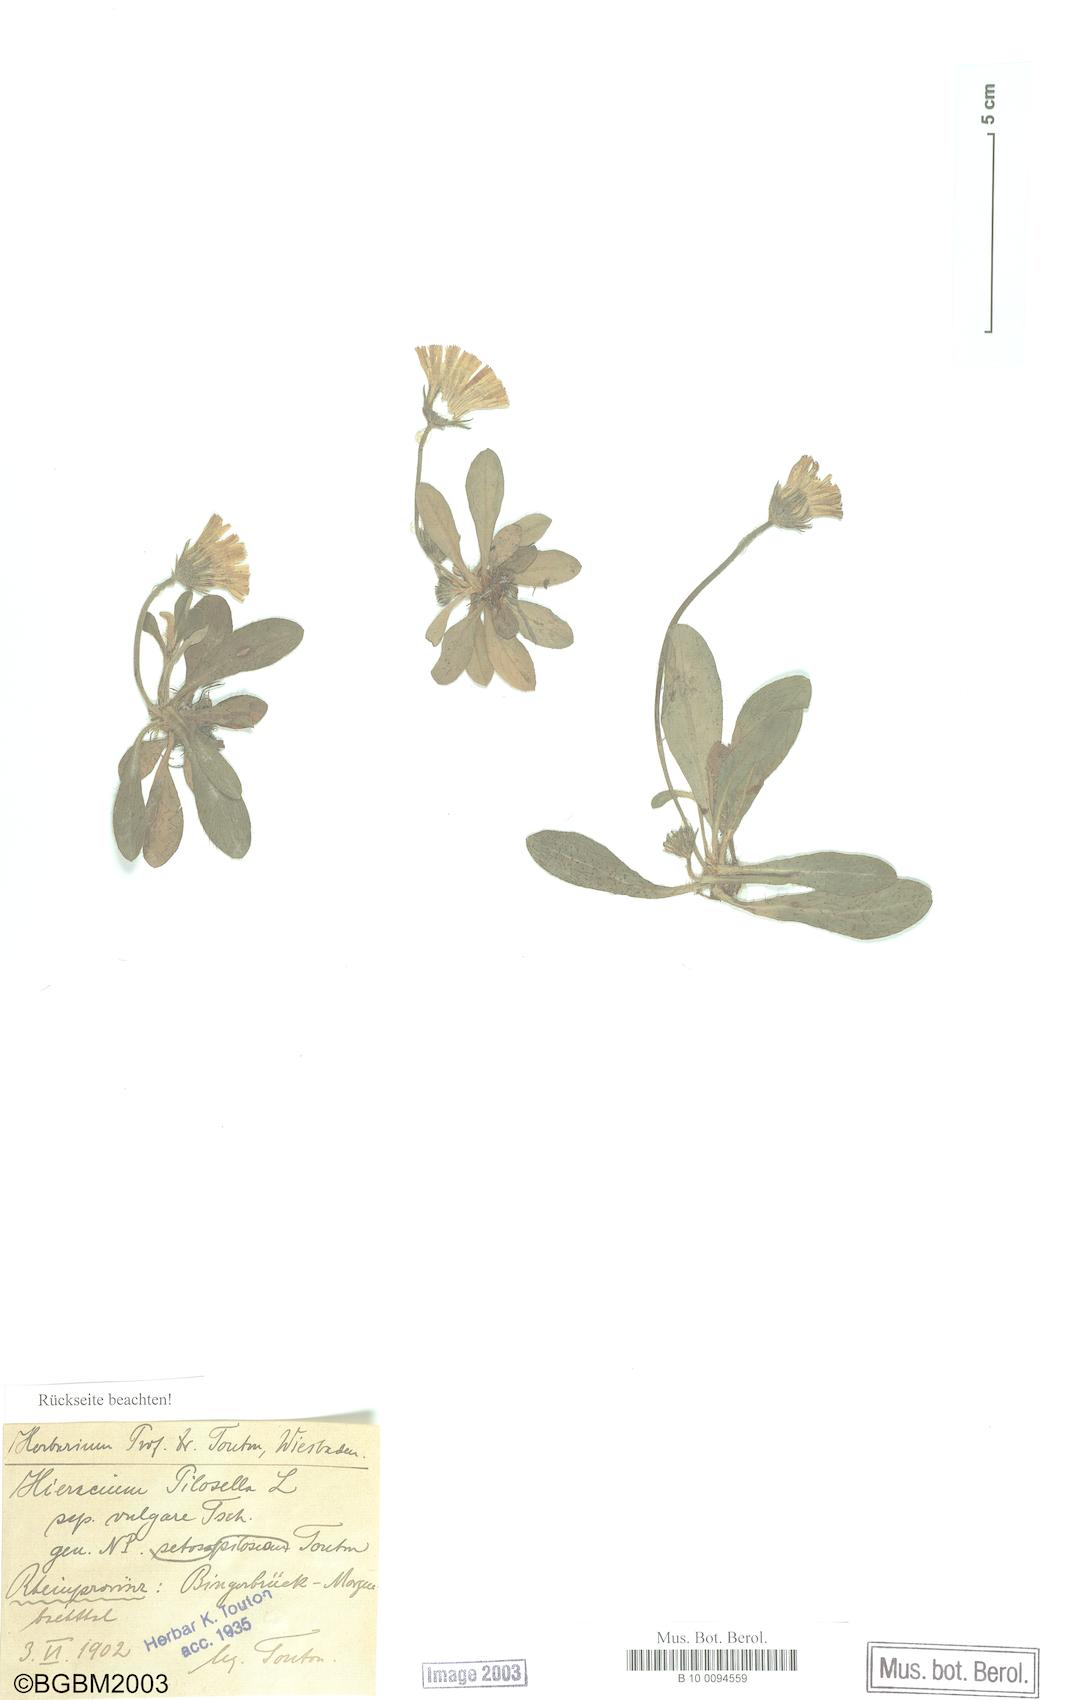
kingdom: Plantae
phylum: Tracheophyta
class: Magnoliopsida
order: Asterales
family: Asteraceae
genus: Pilosella
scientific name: Pilosella officinarum
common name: Mouse-ear hawkweed
